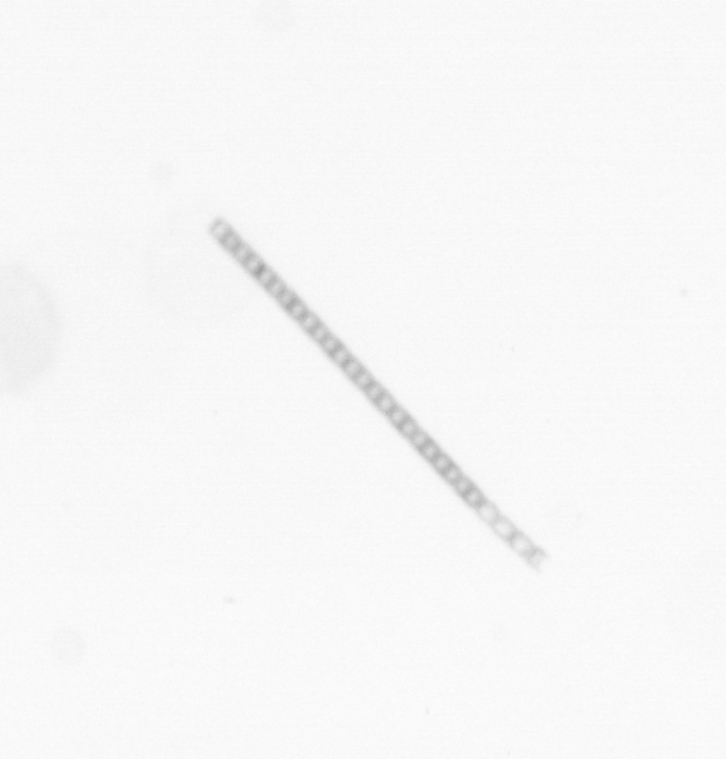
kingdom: Chromista
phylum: Ochrophyta
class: Bacillariophyceae
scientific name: Bacillariophyceae
